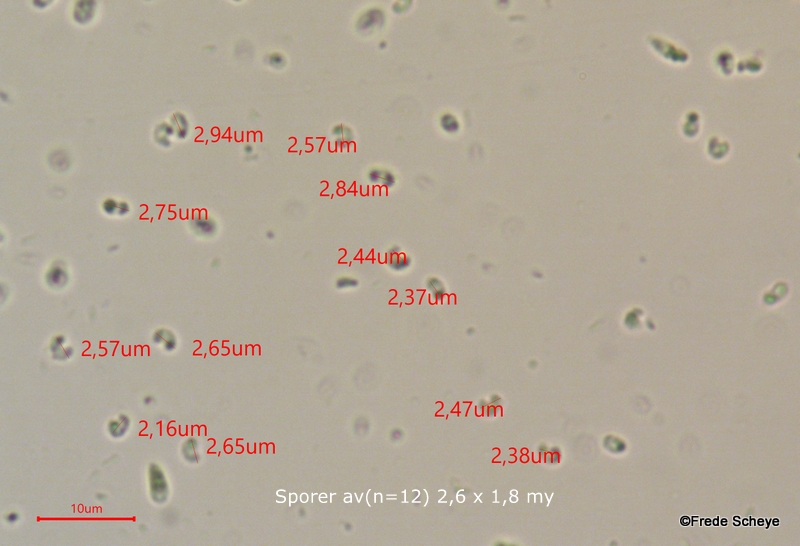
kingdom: Fungi
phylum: Ascomycota
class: Orbiliomycetes
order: Orbiliales
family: Orbiliaceae
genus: Orbilia
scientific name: Orbilia xanthostigma
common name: krumsporet voksskive
